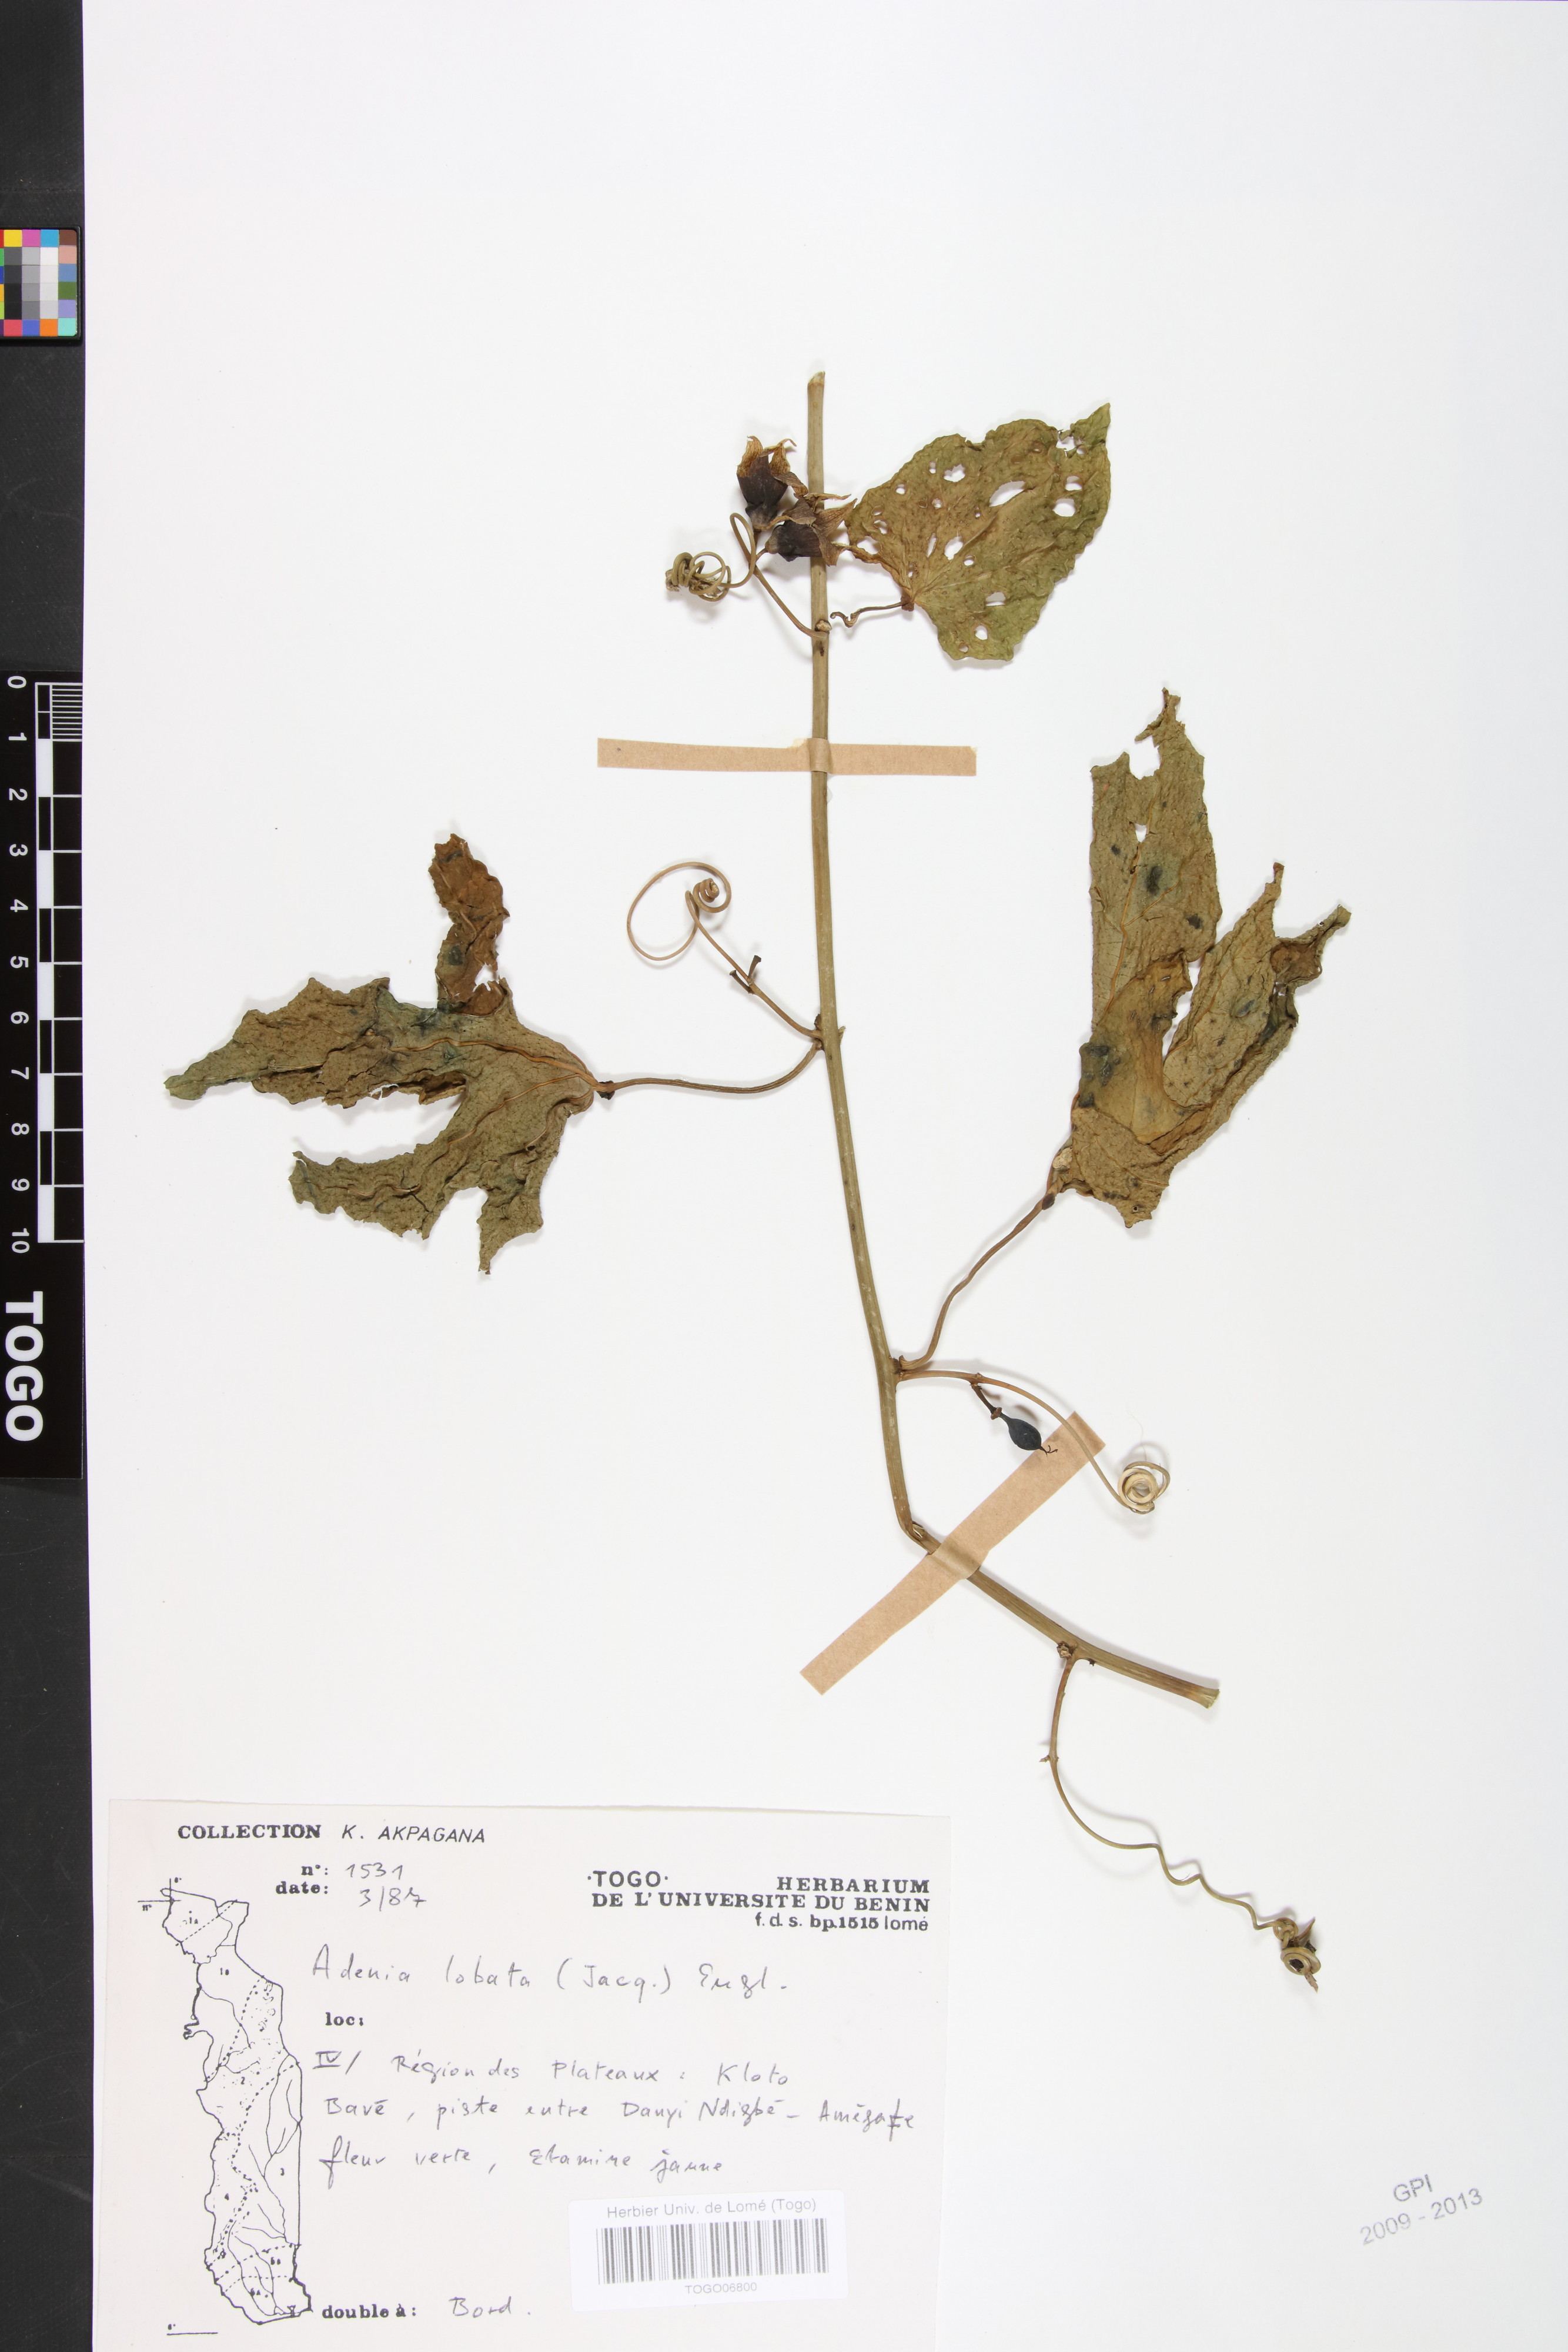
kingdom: Plantae
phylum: Tracheophyta
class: Magnoliopsida
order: Malpighiales
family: Passifloraceae
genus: Adenia
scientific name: Adenia lobata
